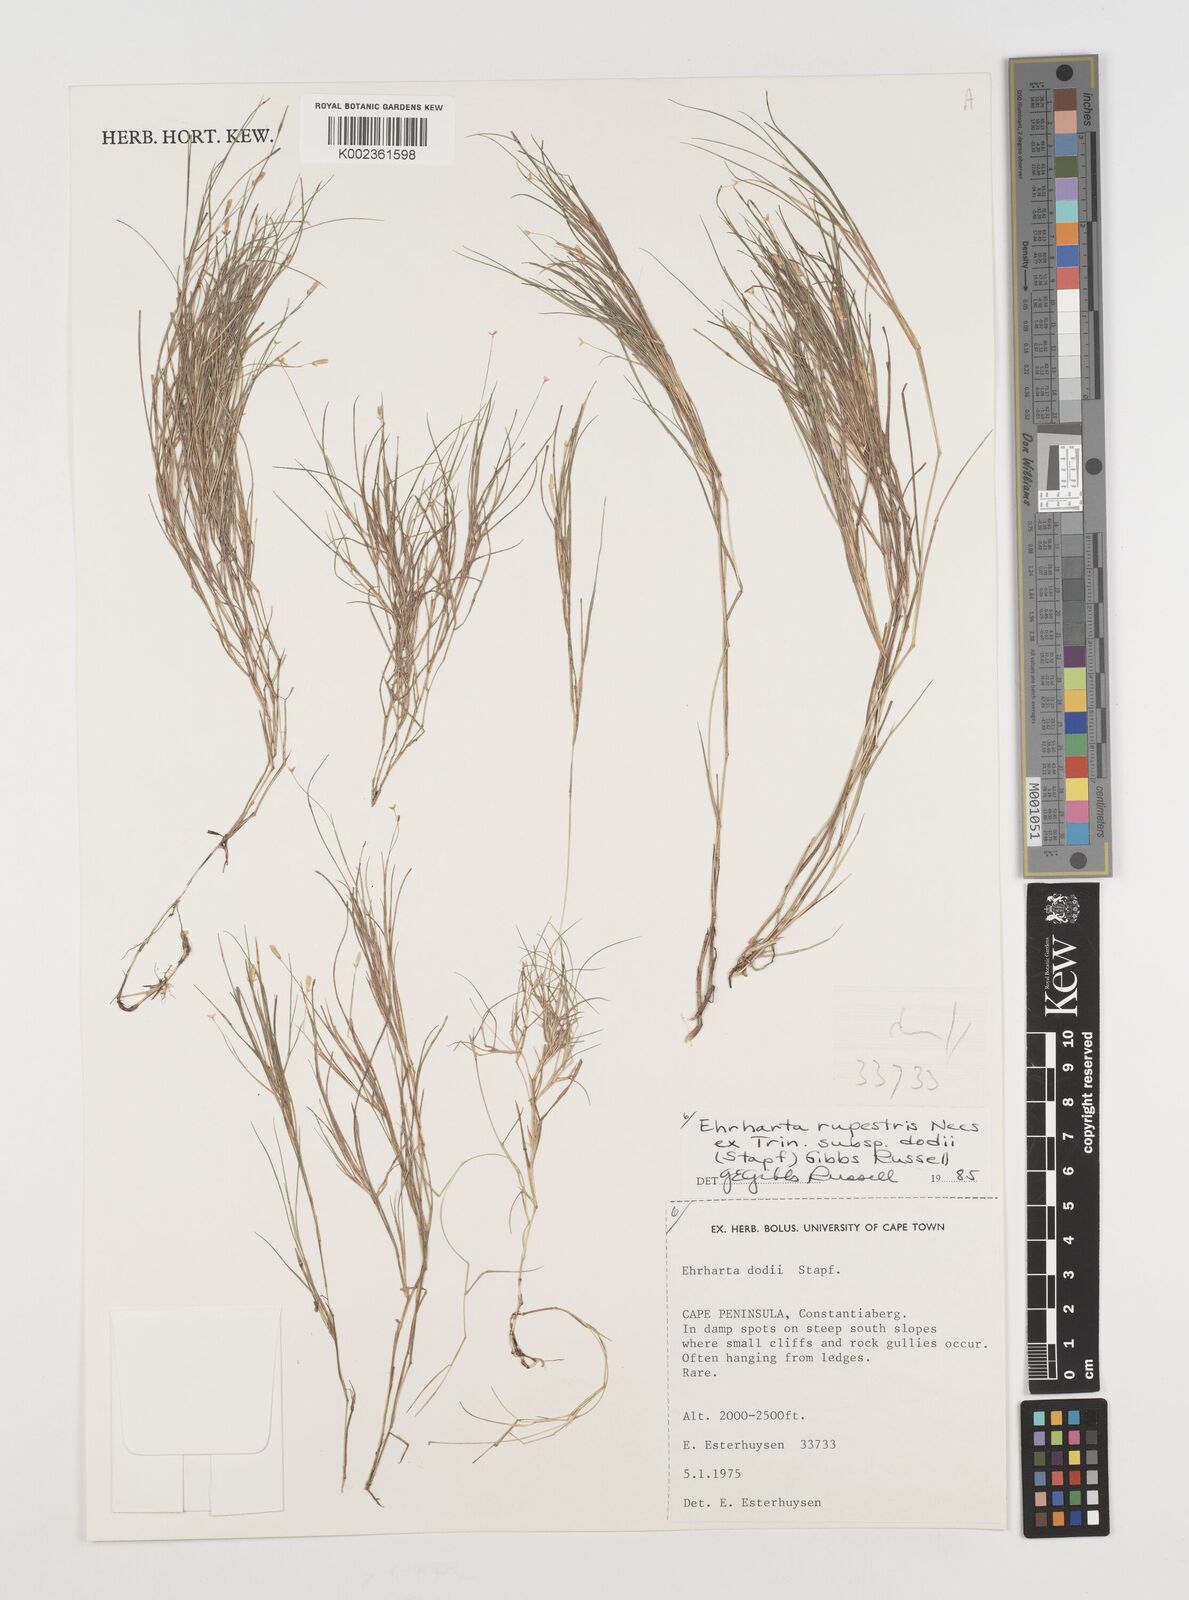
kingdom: Plantae
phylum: Tracheophyta
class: Liliopsida
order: Poales
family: Poaceae
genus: Ehrharta
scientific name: Ehrharta rupestris
